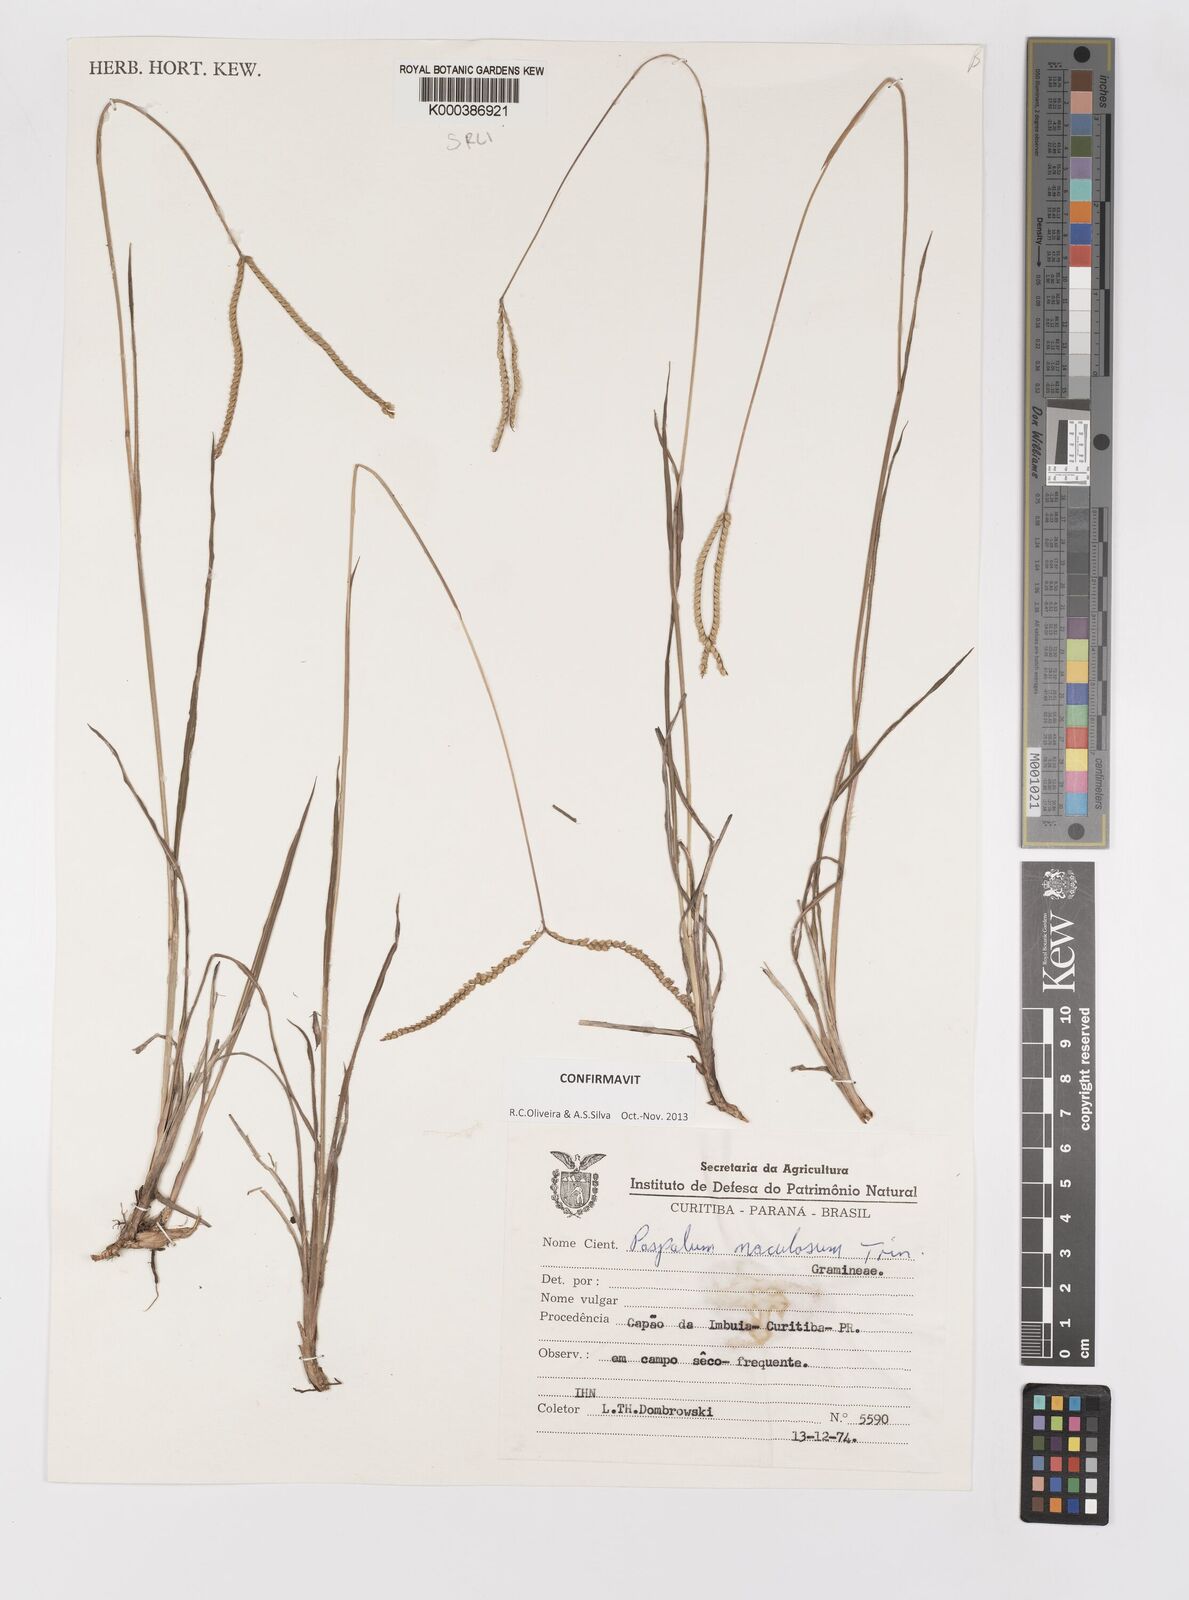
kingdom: Plantae
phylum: Tracheophyta
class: Liliopsida
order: Poales
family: Poaceae
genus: Paspalum
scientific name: Paspalum maculosum
